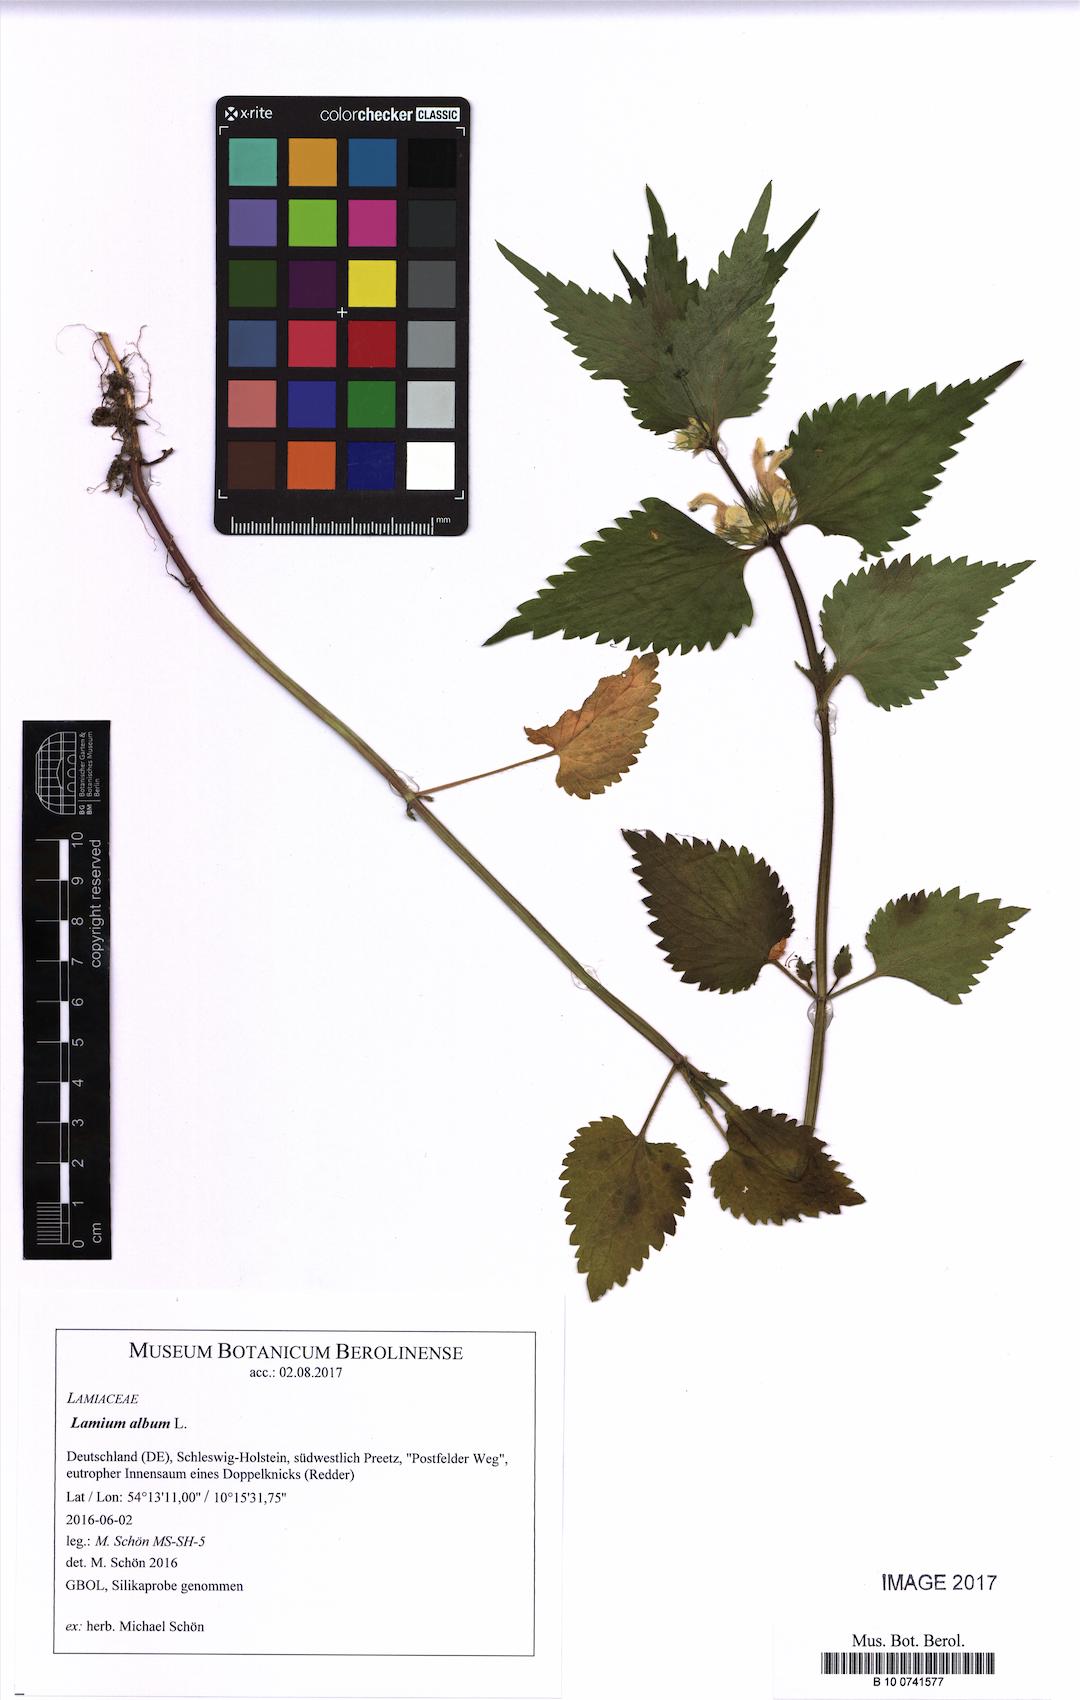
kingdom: Plantae
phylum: Tracheophyta
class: Magnoliopsida
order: Lamiales
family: Lamiaceae
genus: Lamium
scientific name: Lamium album
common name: White dead-nettle
